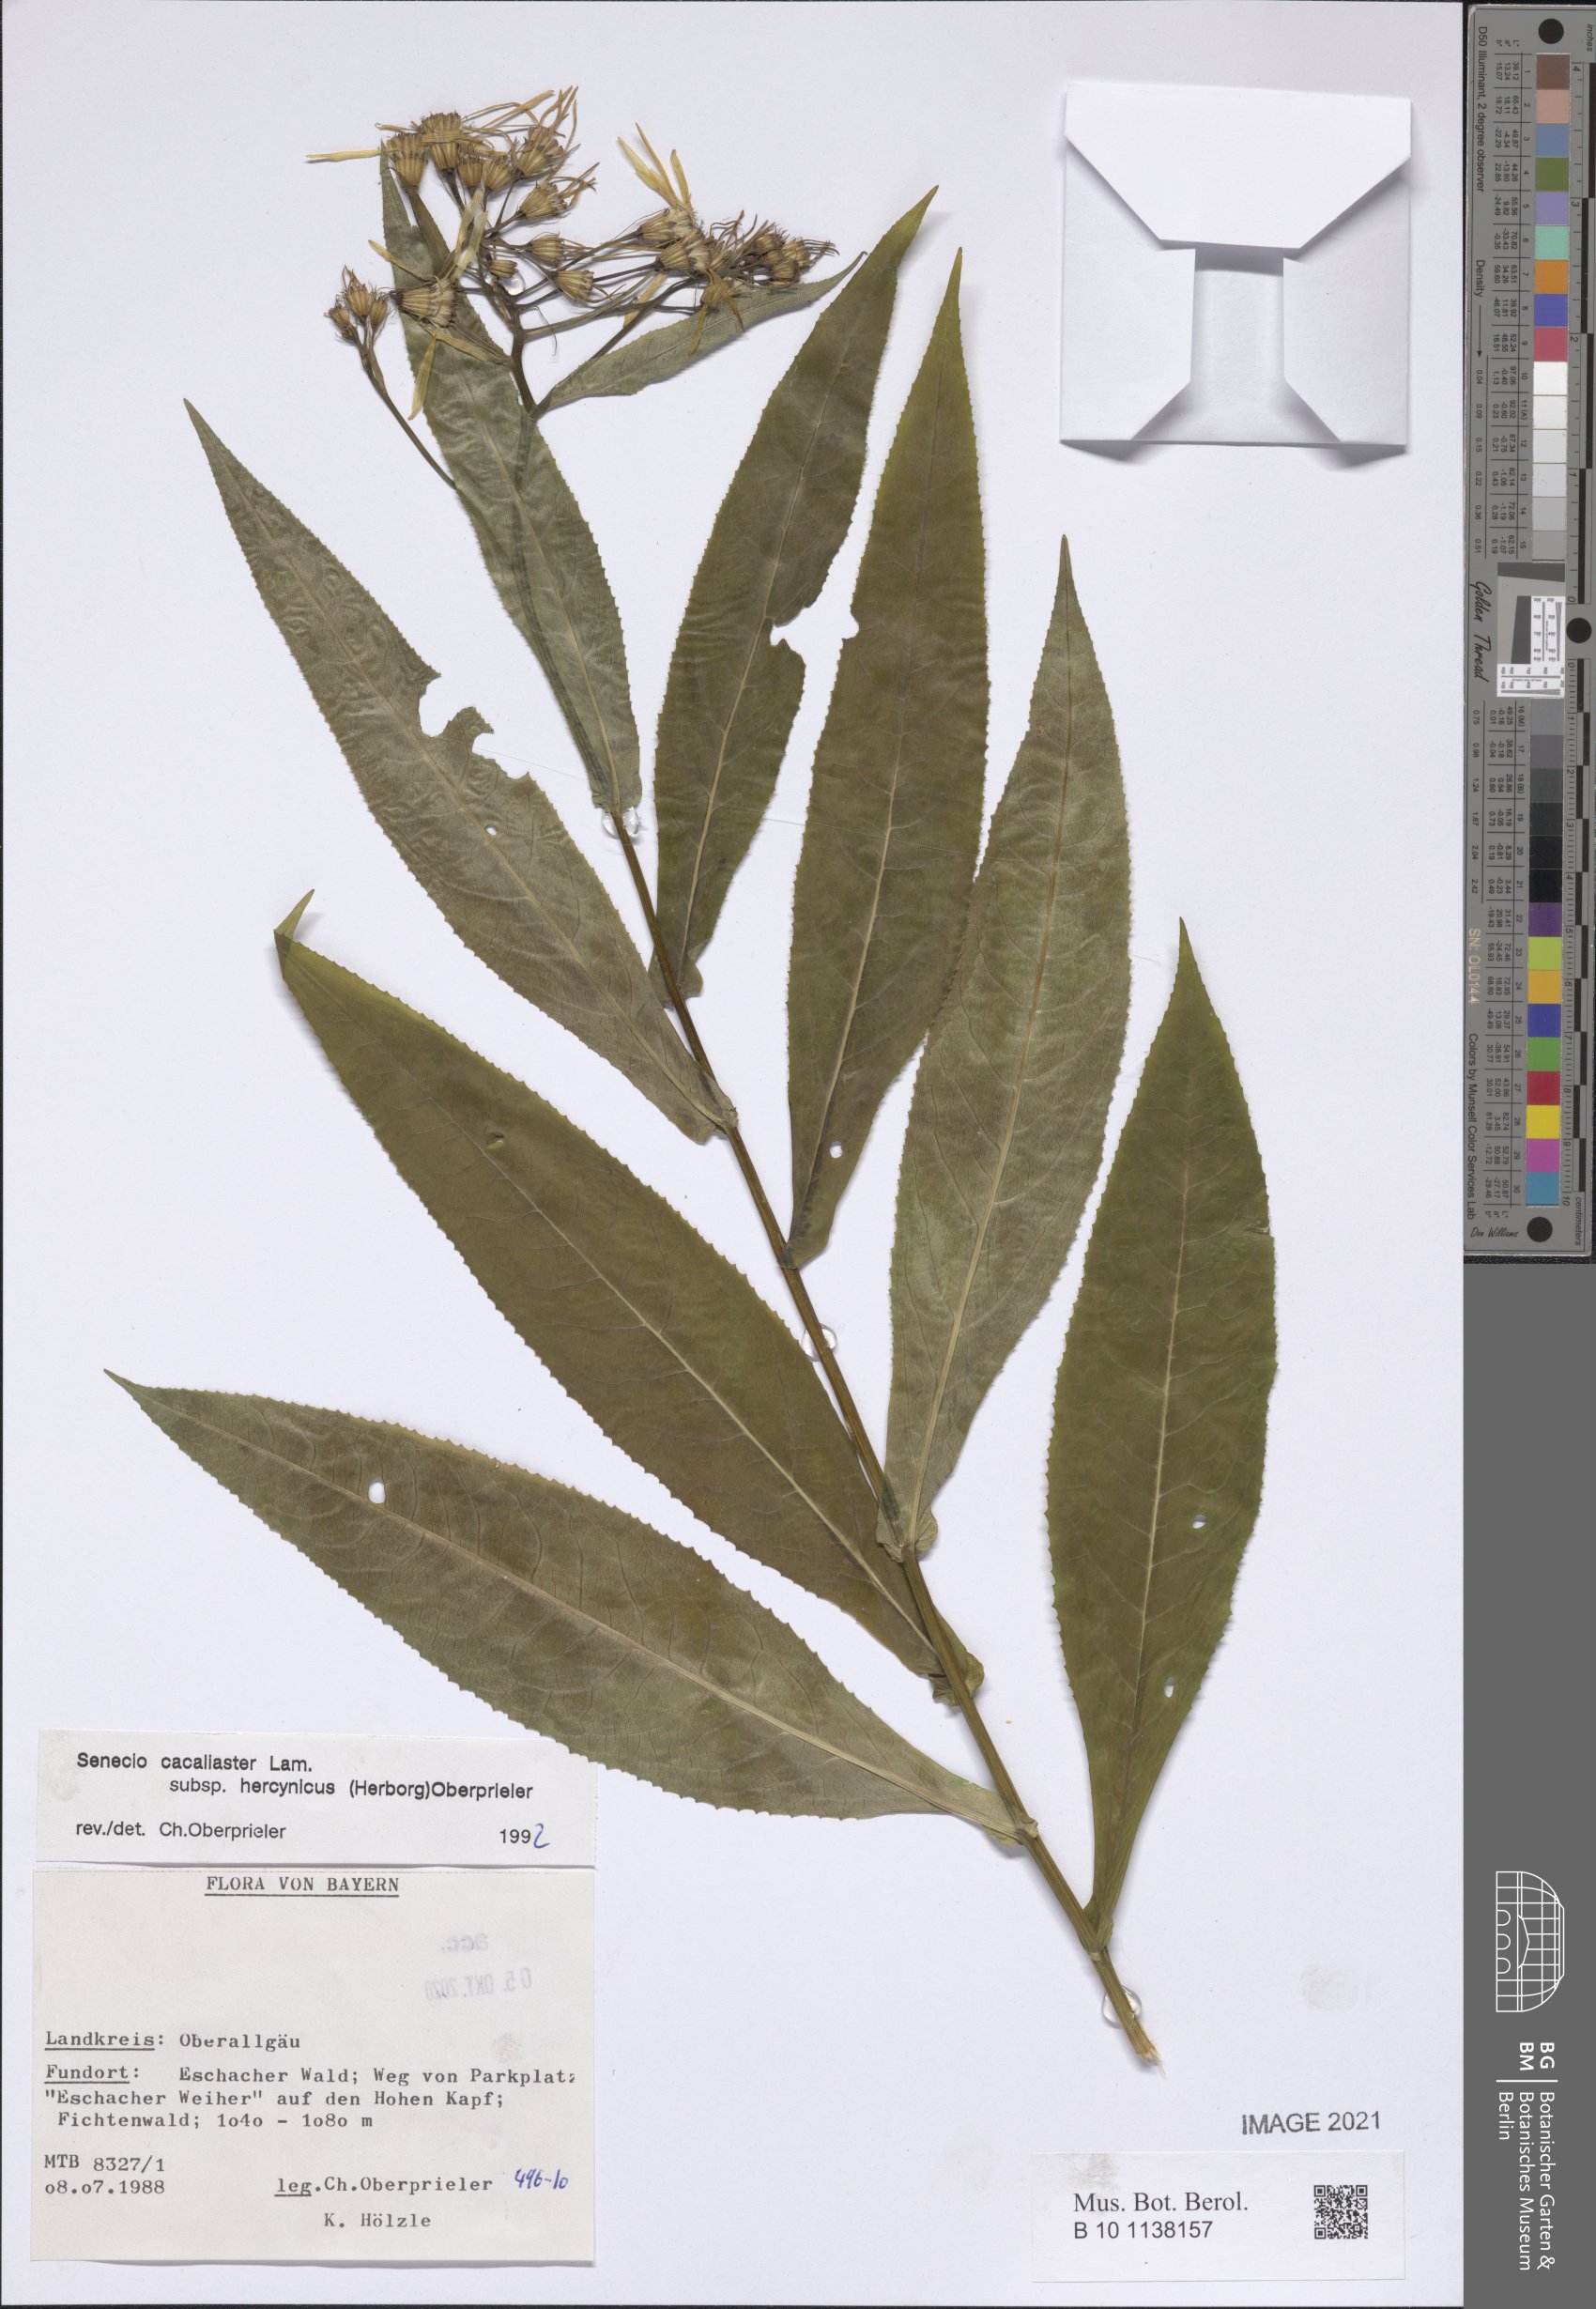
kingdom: Plantae
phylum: Tracheophyta
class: Magnoliopsida
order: Asterales
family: Asteraceae
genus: Senecio
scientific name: Senecio hercynicus
